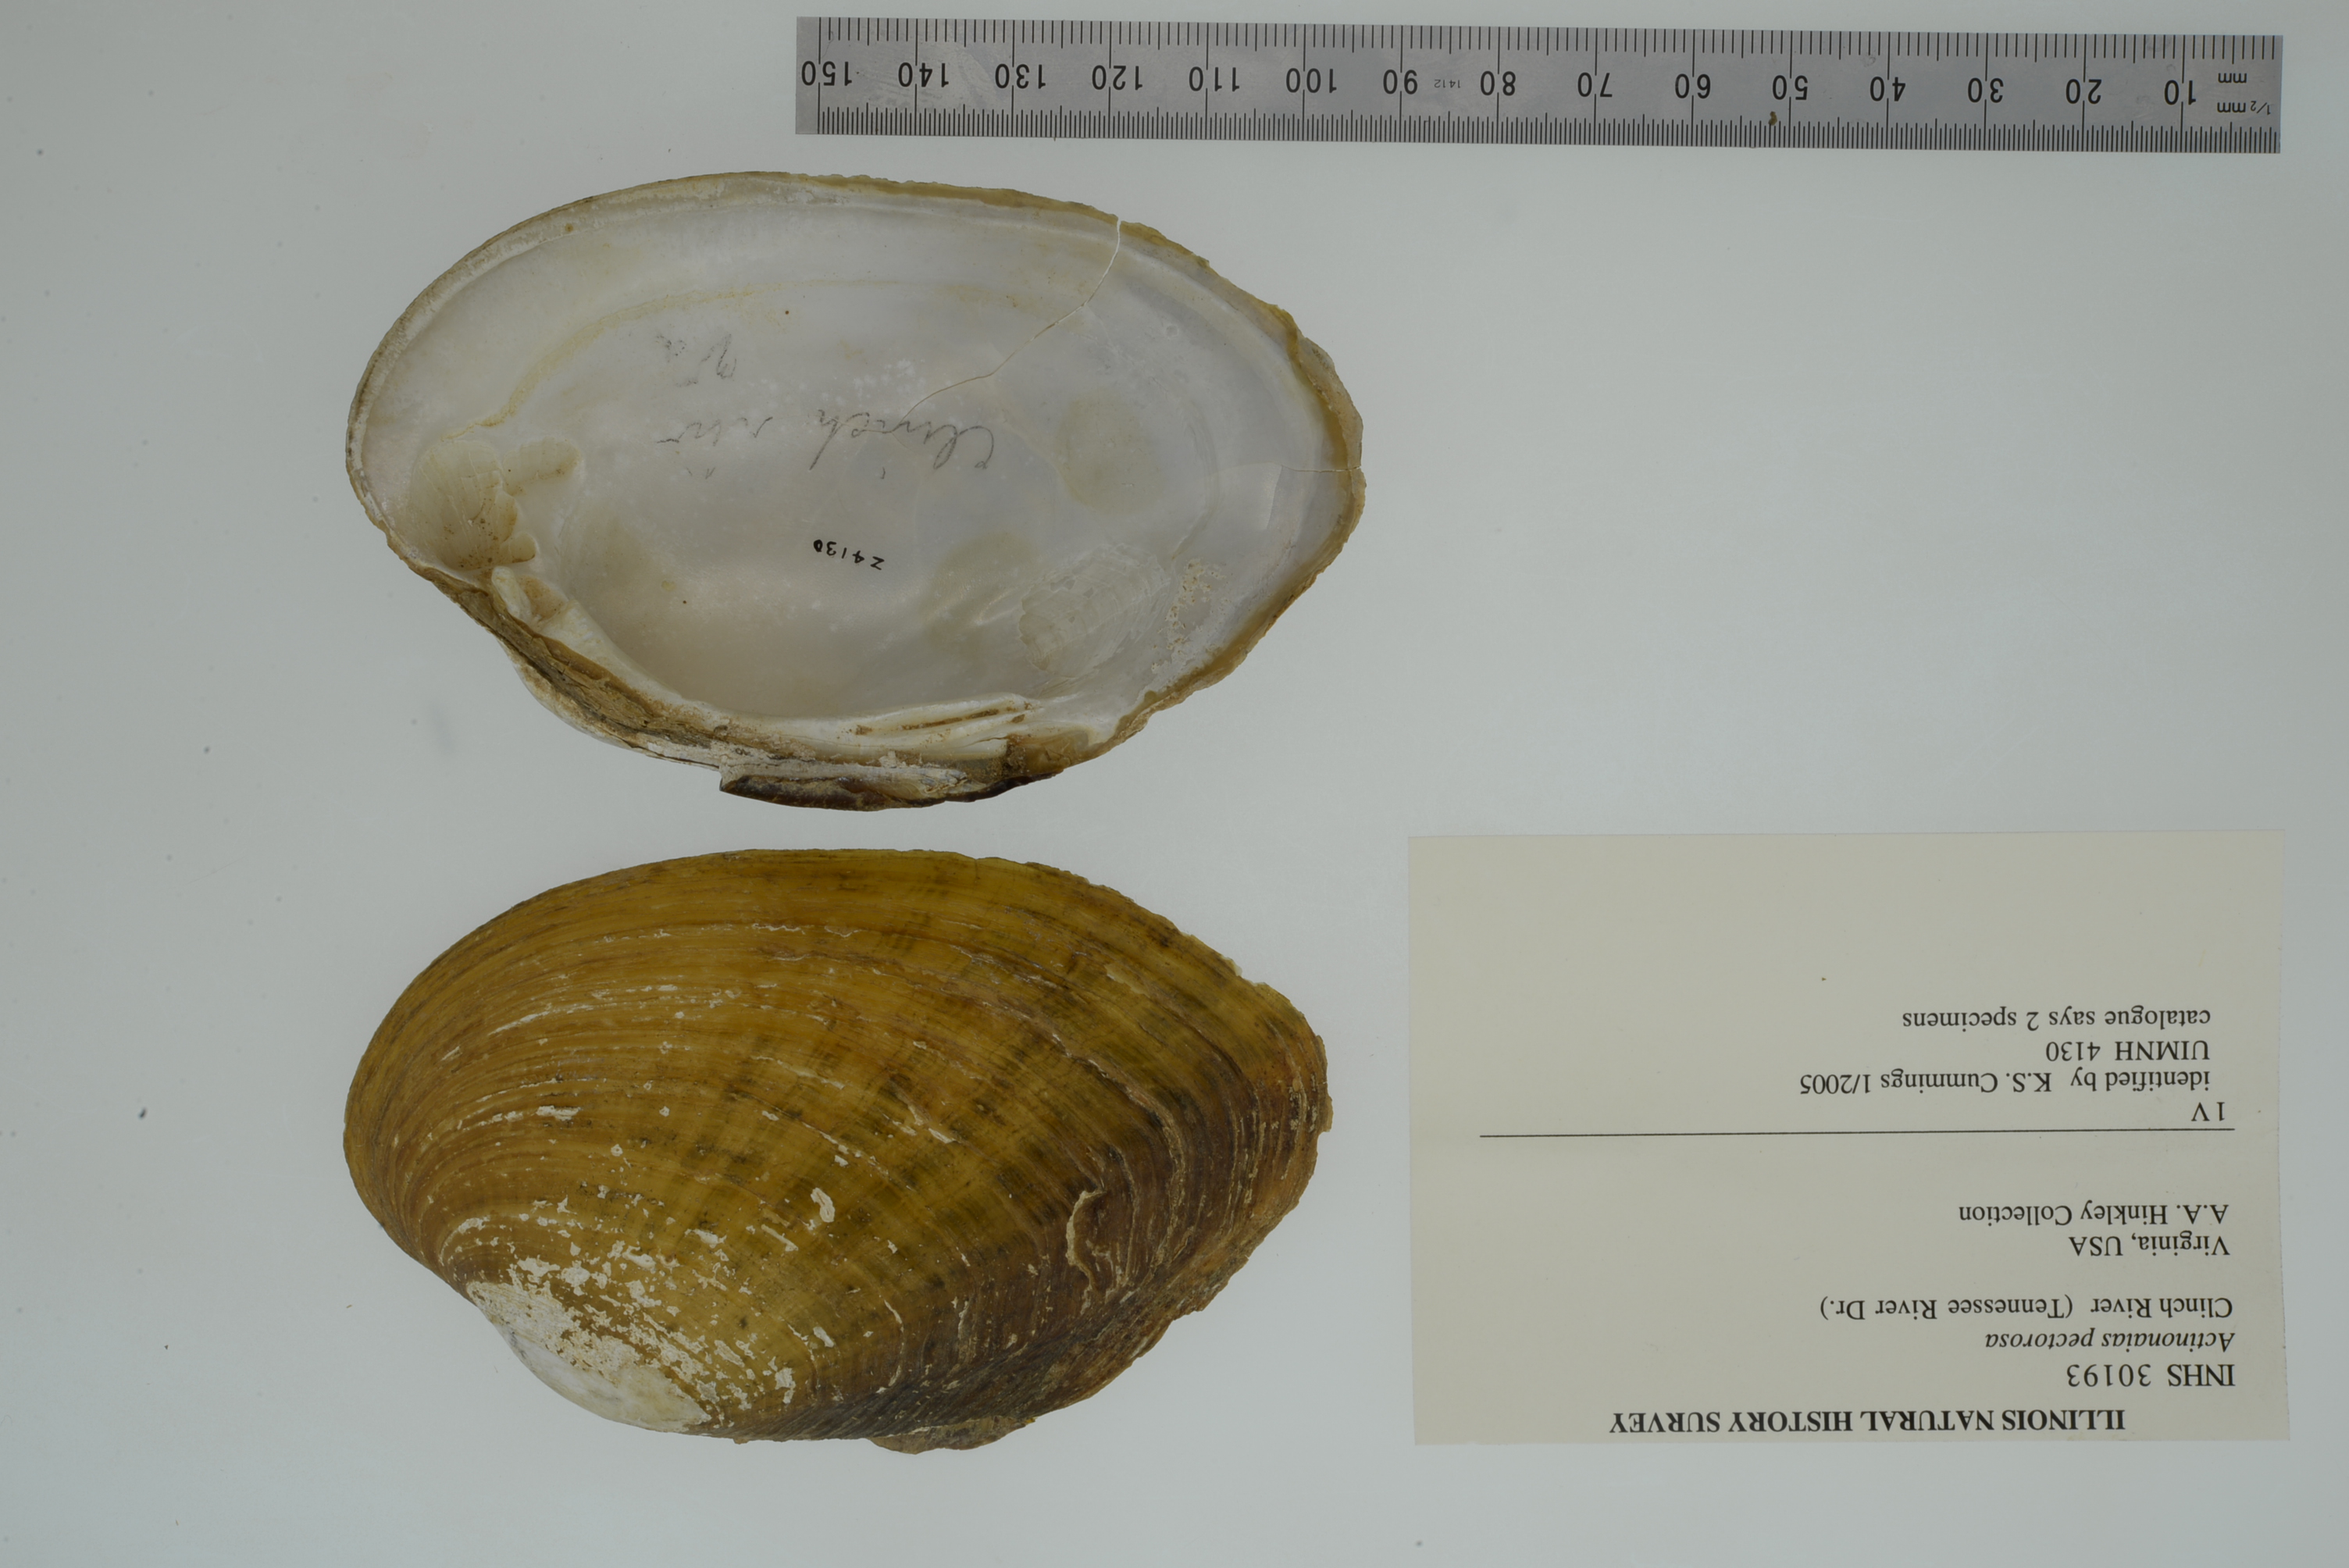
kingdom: Animalia
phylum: Mollusca
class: Bivalvia
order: Unionida
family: Unionidae
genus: Ortmanniana
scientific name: Ortmanniana pectorosa
